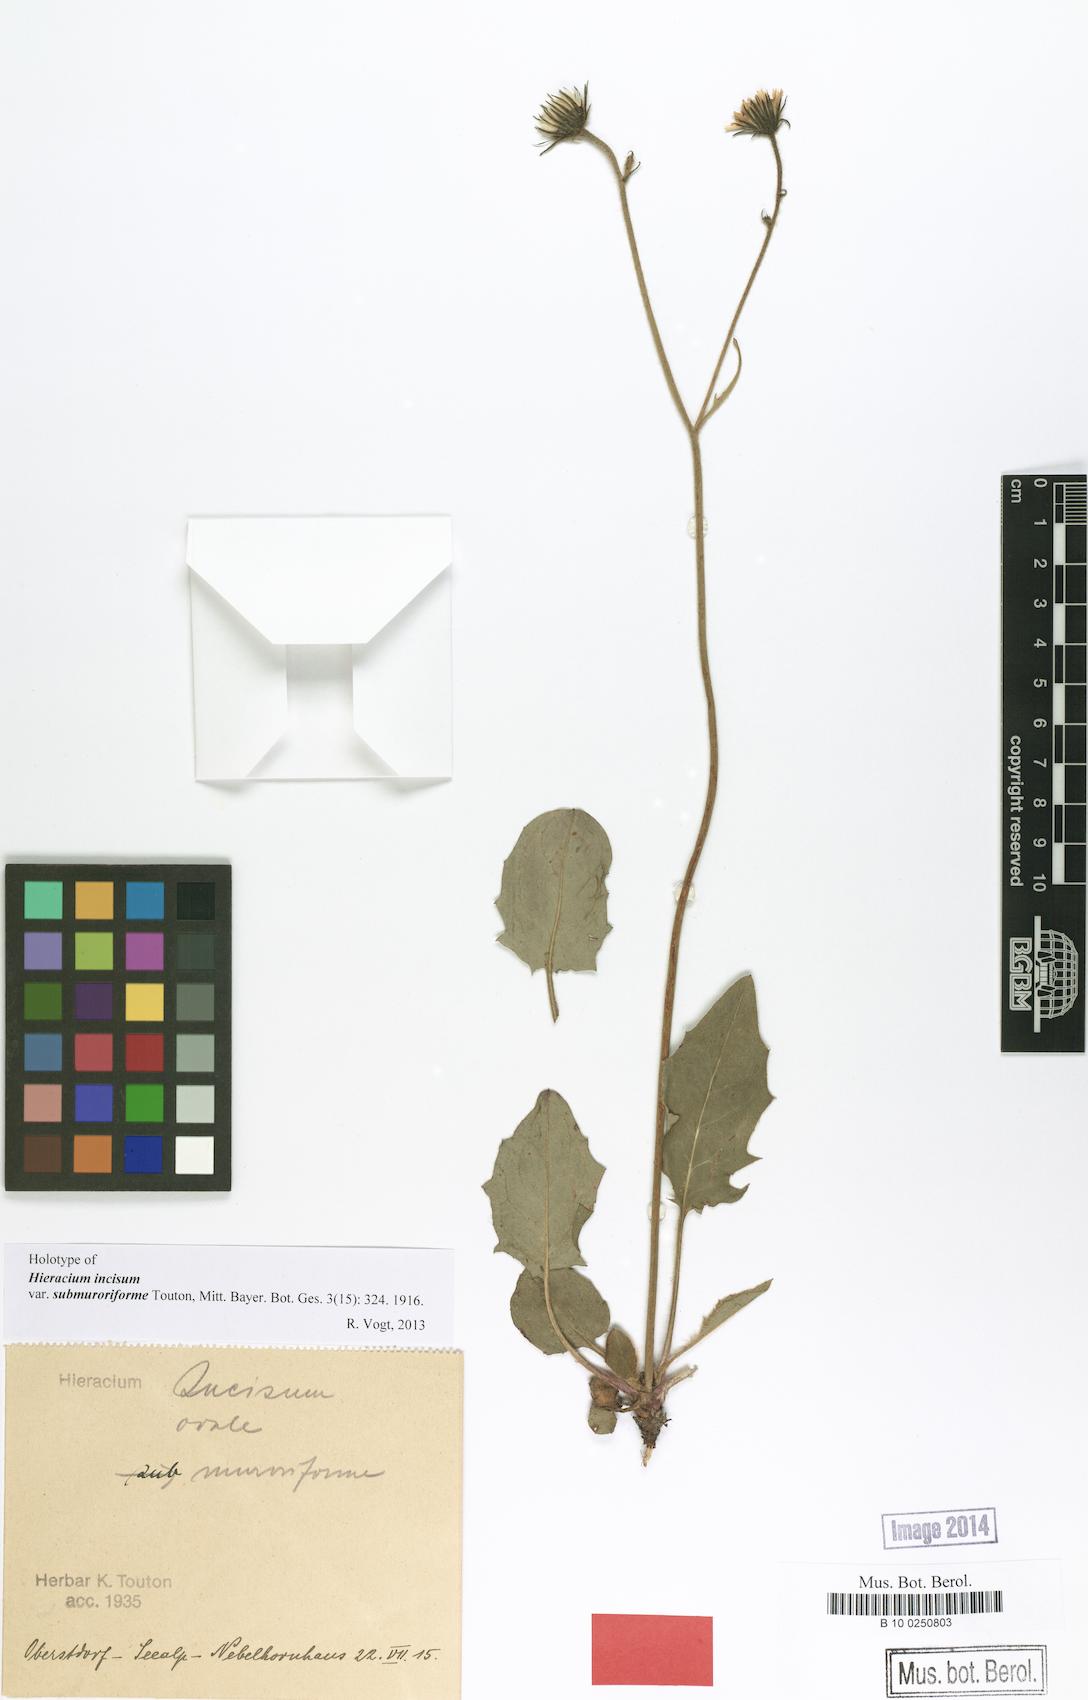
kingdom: Plantae
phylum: Tracheophyta
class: Magnoliopsida
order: Asterales
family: Asteraceae
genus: Hieracium
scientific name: Hieracium incisum
